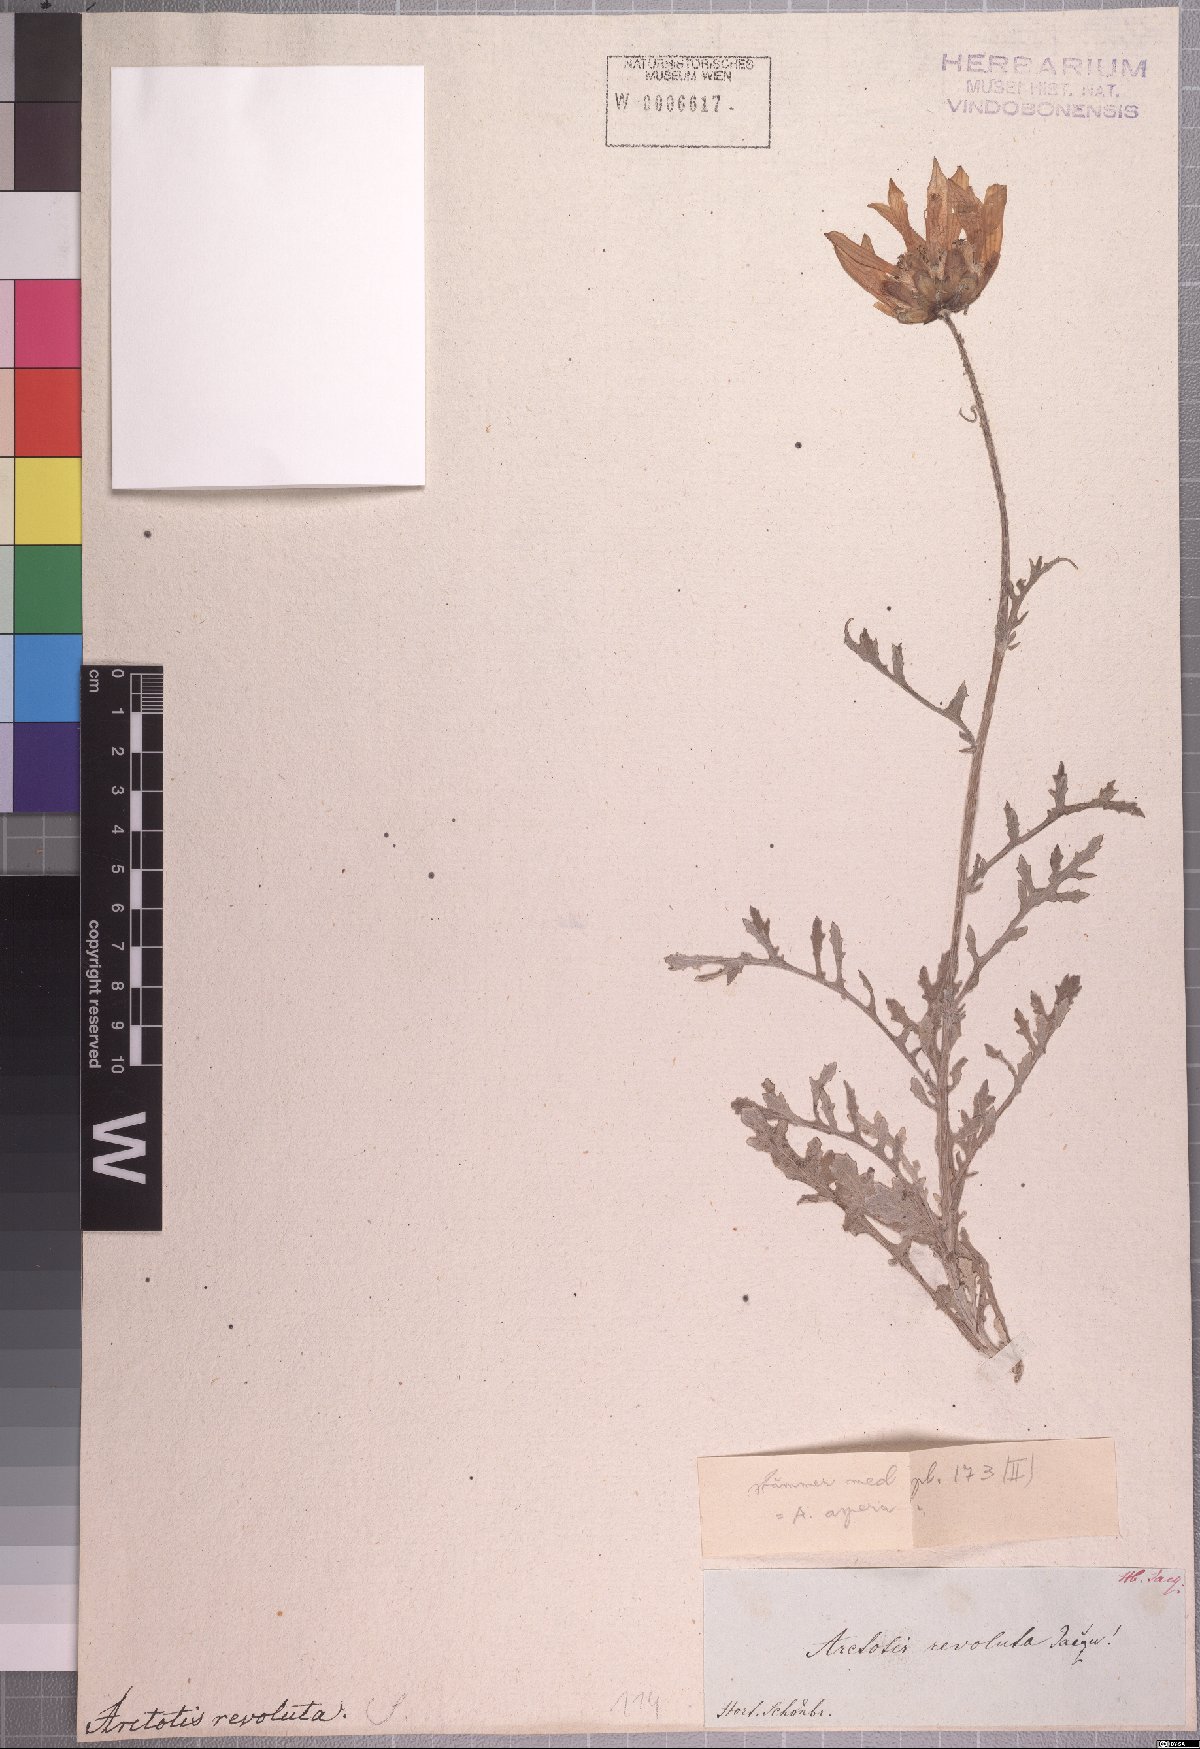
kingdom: Plantae
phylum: Tracheophyta
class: Magnoliopsida
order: Asterales
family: Asteraceae
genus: Arctotis
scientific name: Arctotis revoluta
